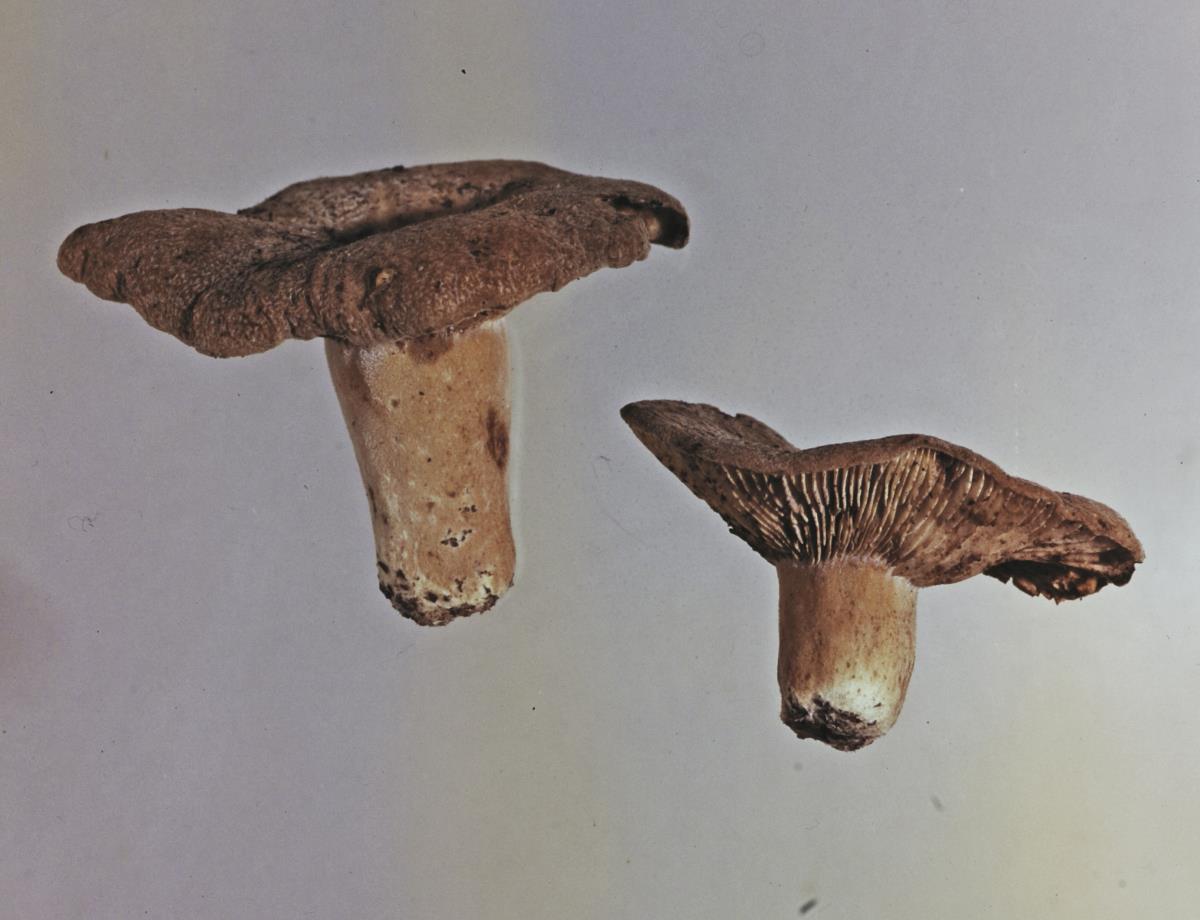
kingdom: Fungi
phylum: Basidiomycota
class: Agaricomycetes
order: Russulales
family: Russulaceae
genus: Lactifluus
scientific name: Lactifluus clarkeae
